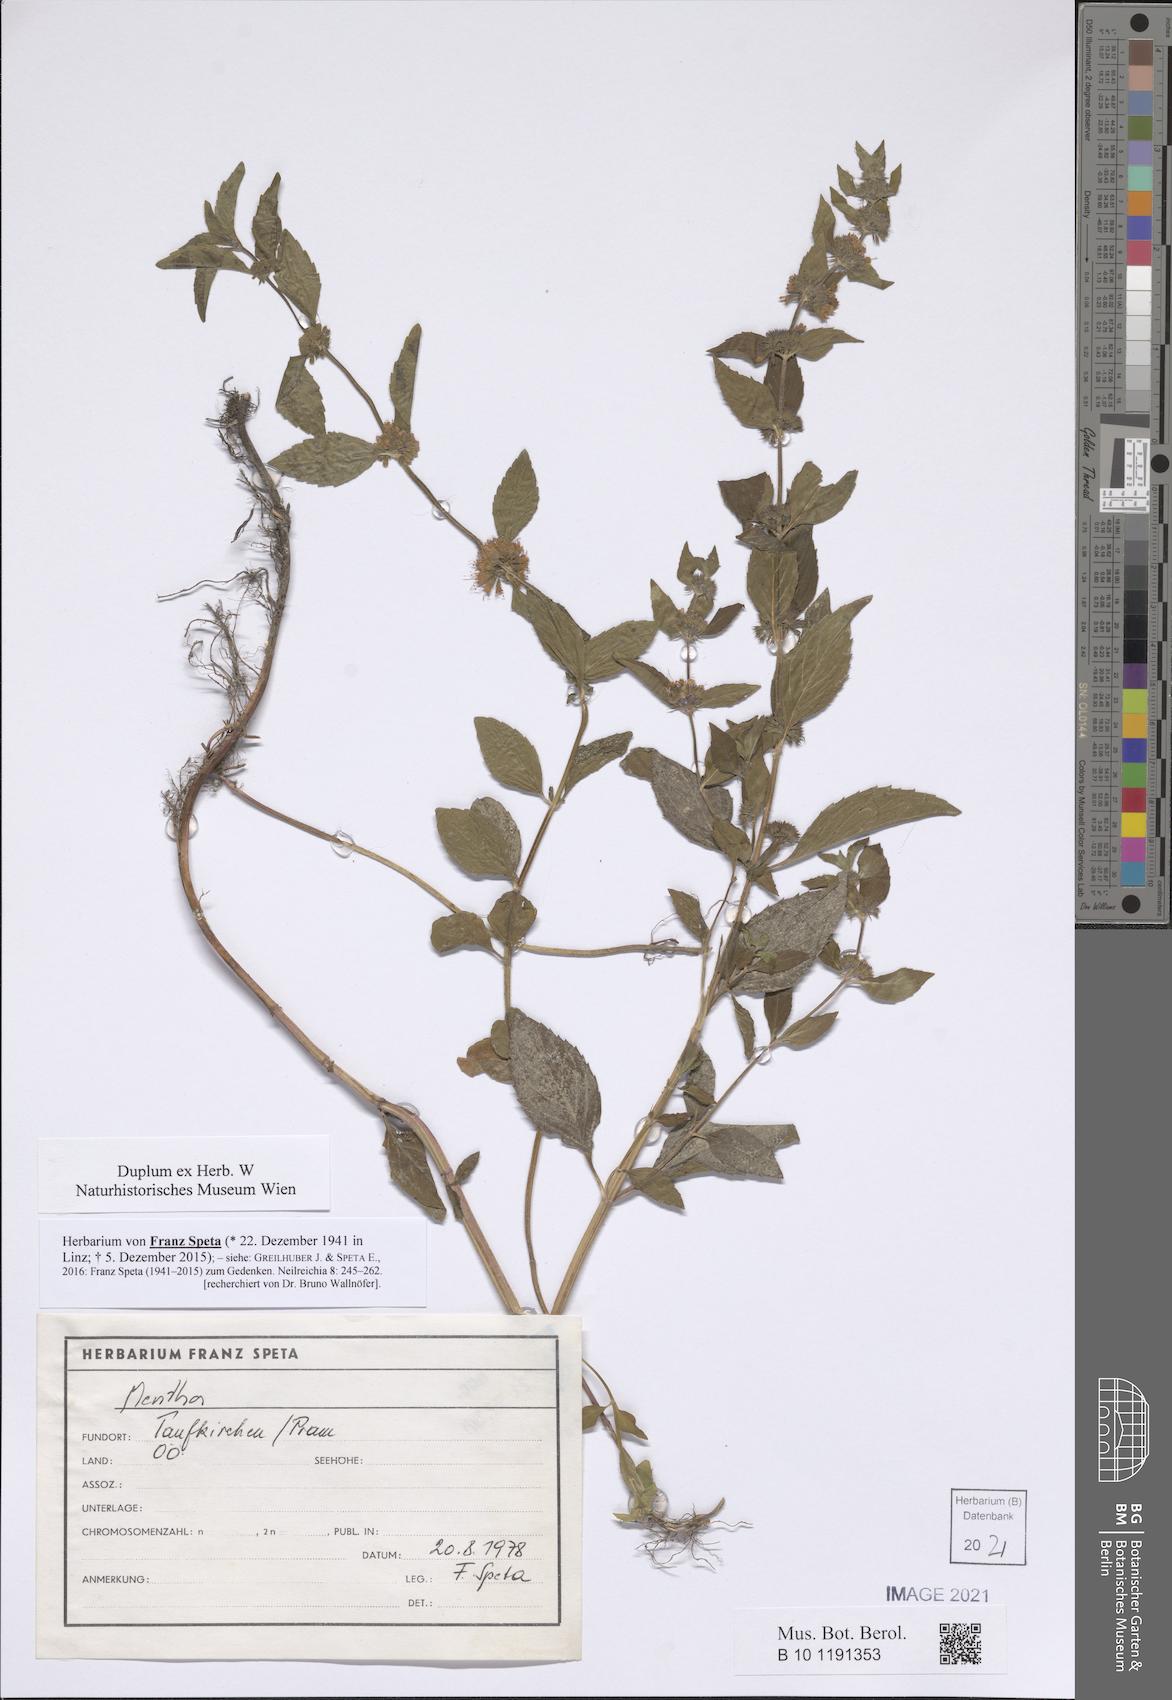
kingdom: Plantae
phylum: Tracheophyta
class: Magnoliopsida
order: Lamiales
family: Lamiaceae
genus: Mentha
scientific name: Mentha
